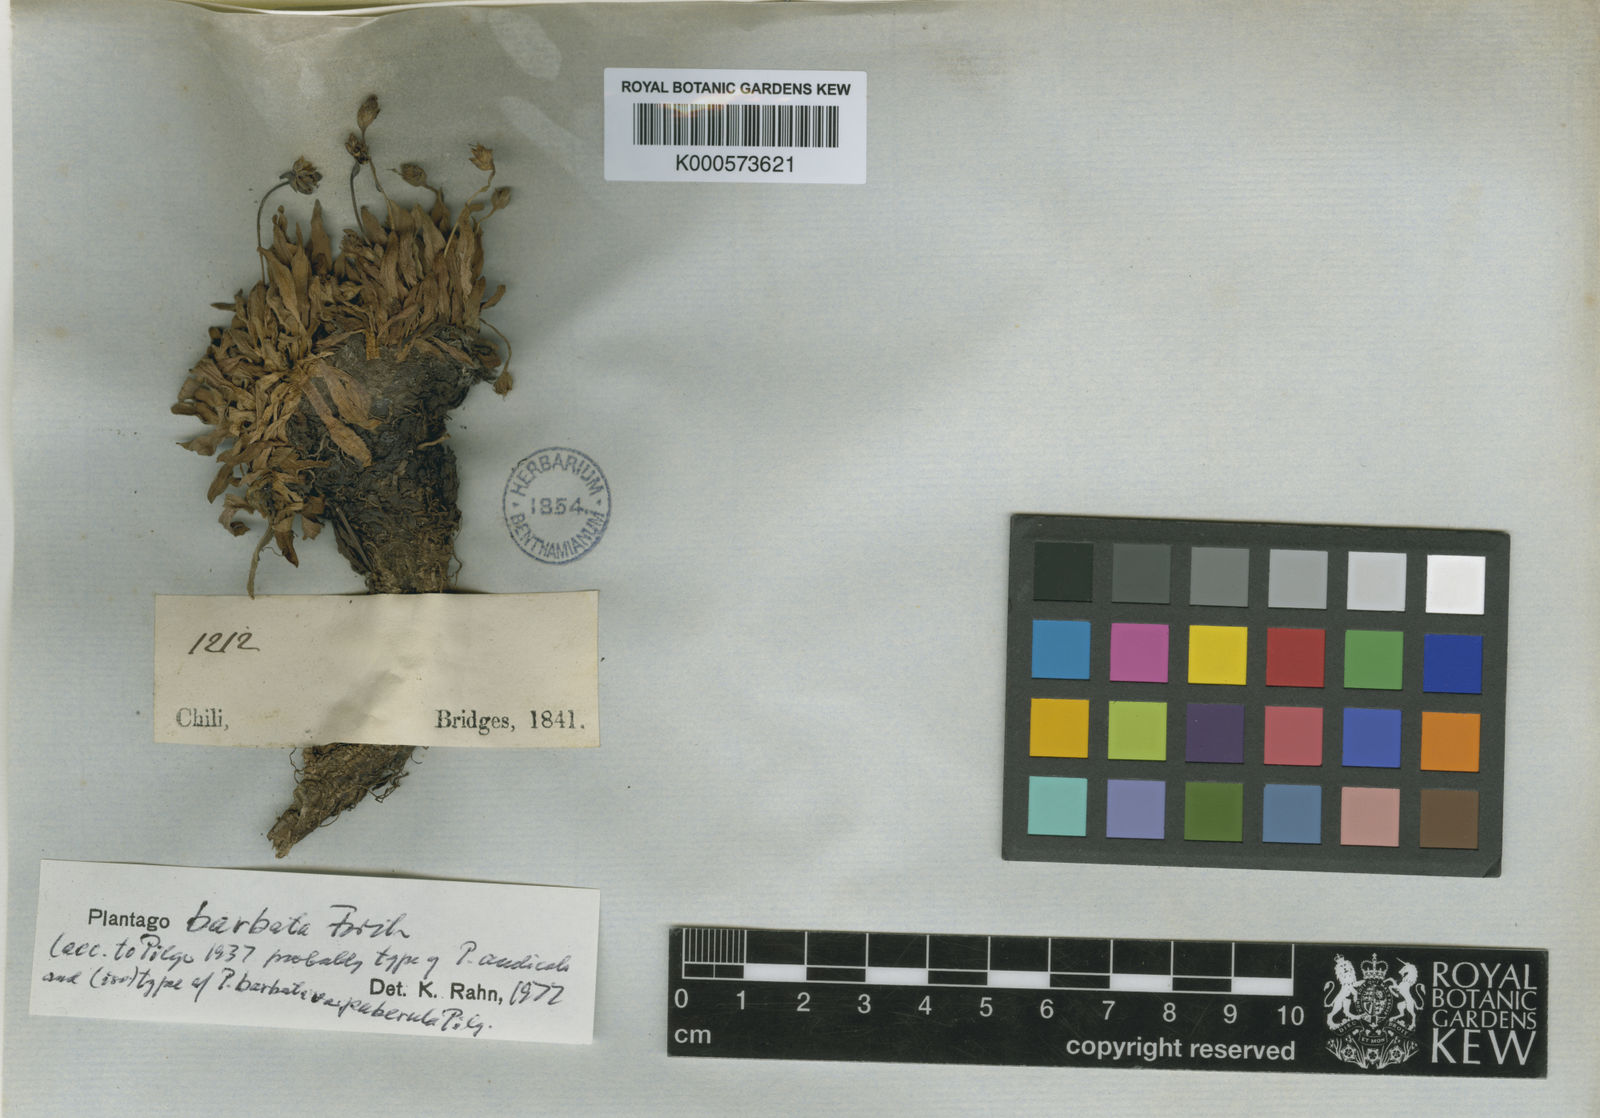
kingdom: Plantae
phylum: Tracheophyta
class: Magnoliopsida
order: Lamiales
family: Plantaginaceae
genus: Plantago
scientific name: Plantago barbata
